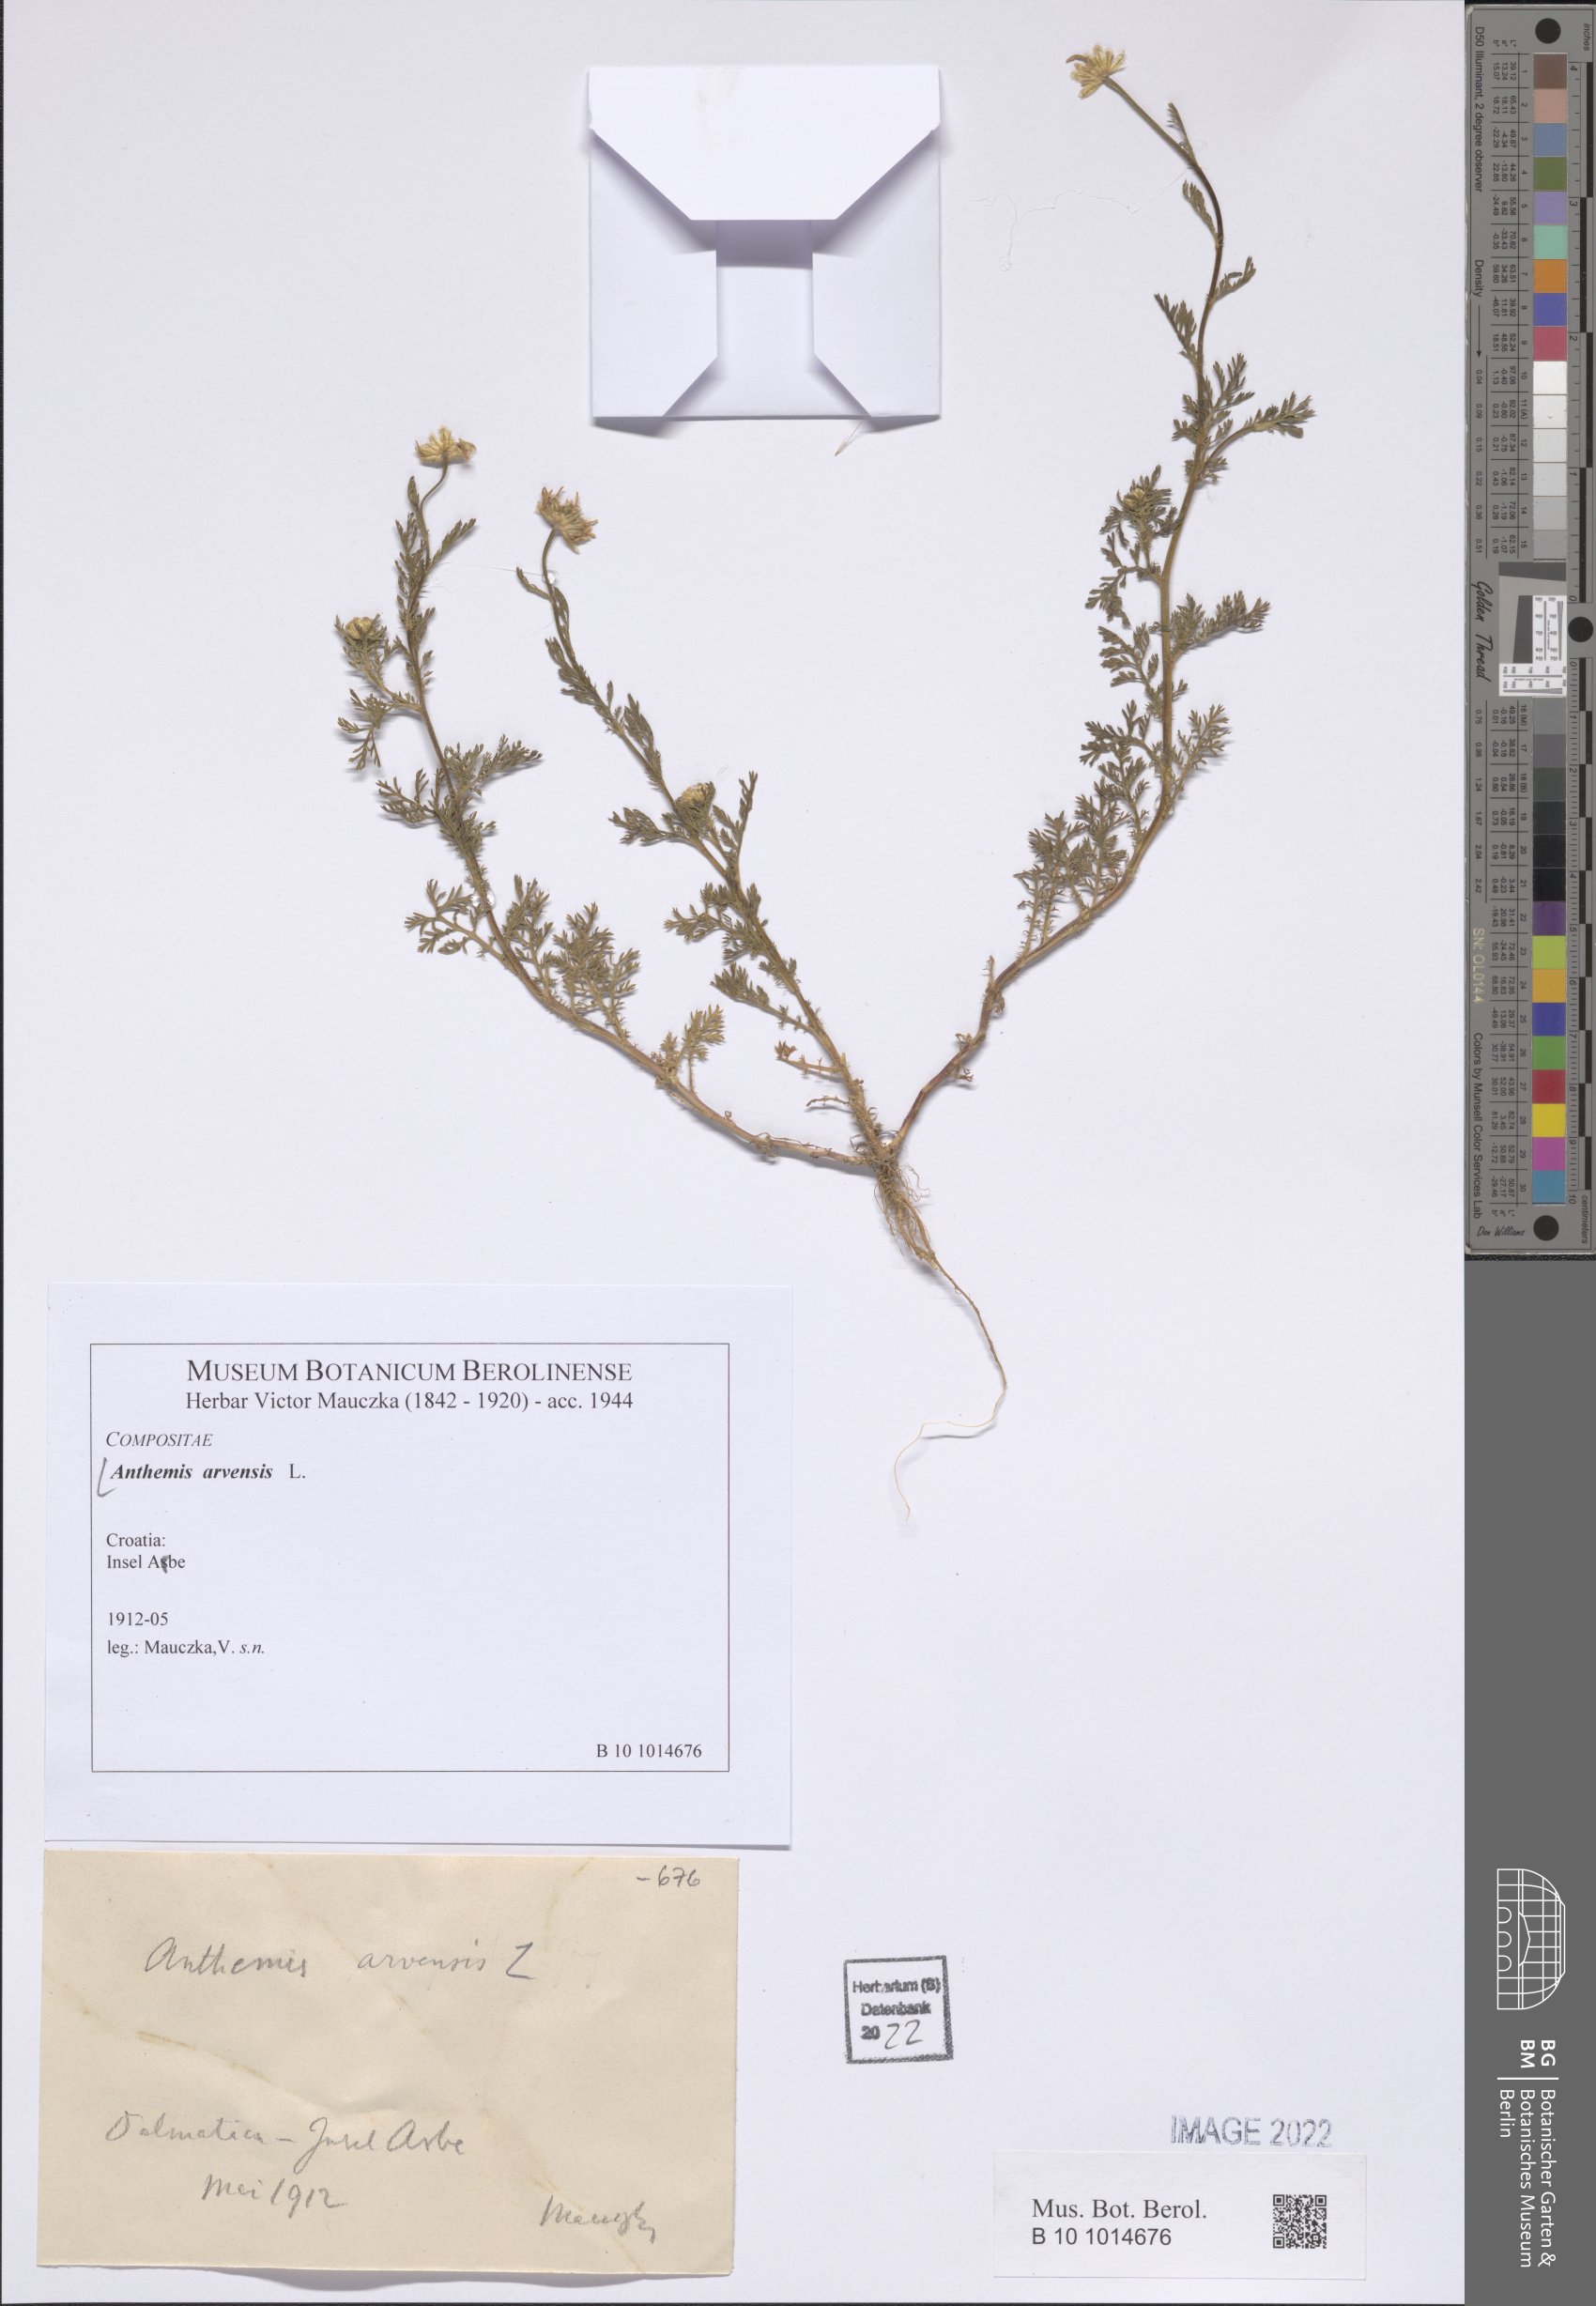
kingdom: Plantae
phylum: Tracheophyta
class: Magnoliopsida
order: Asterales
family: Asteraceae
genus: Anthemis
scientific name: Anthemis arvensis
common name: Corn chamomile
